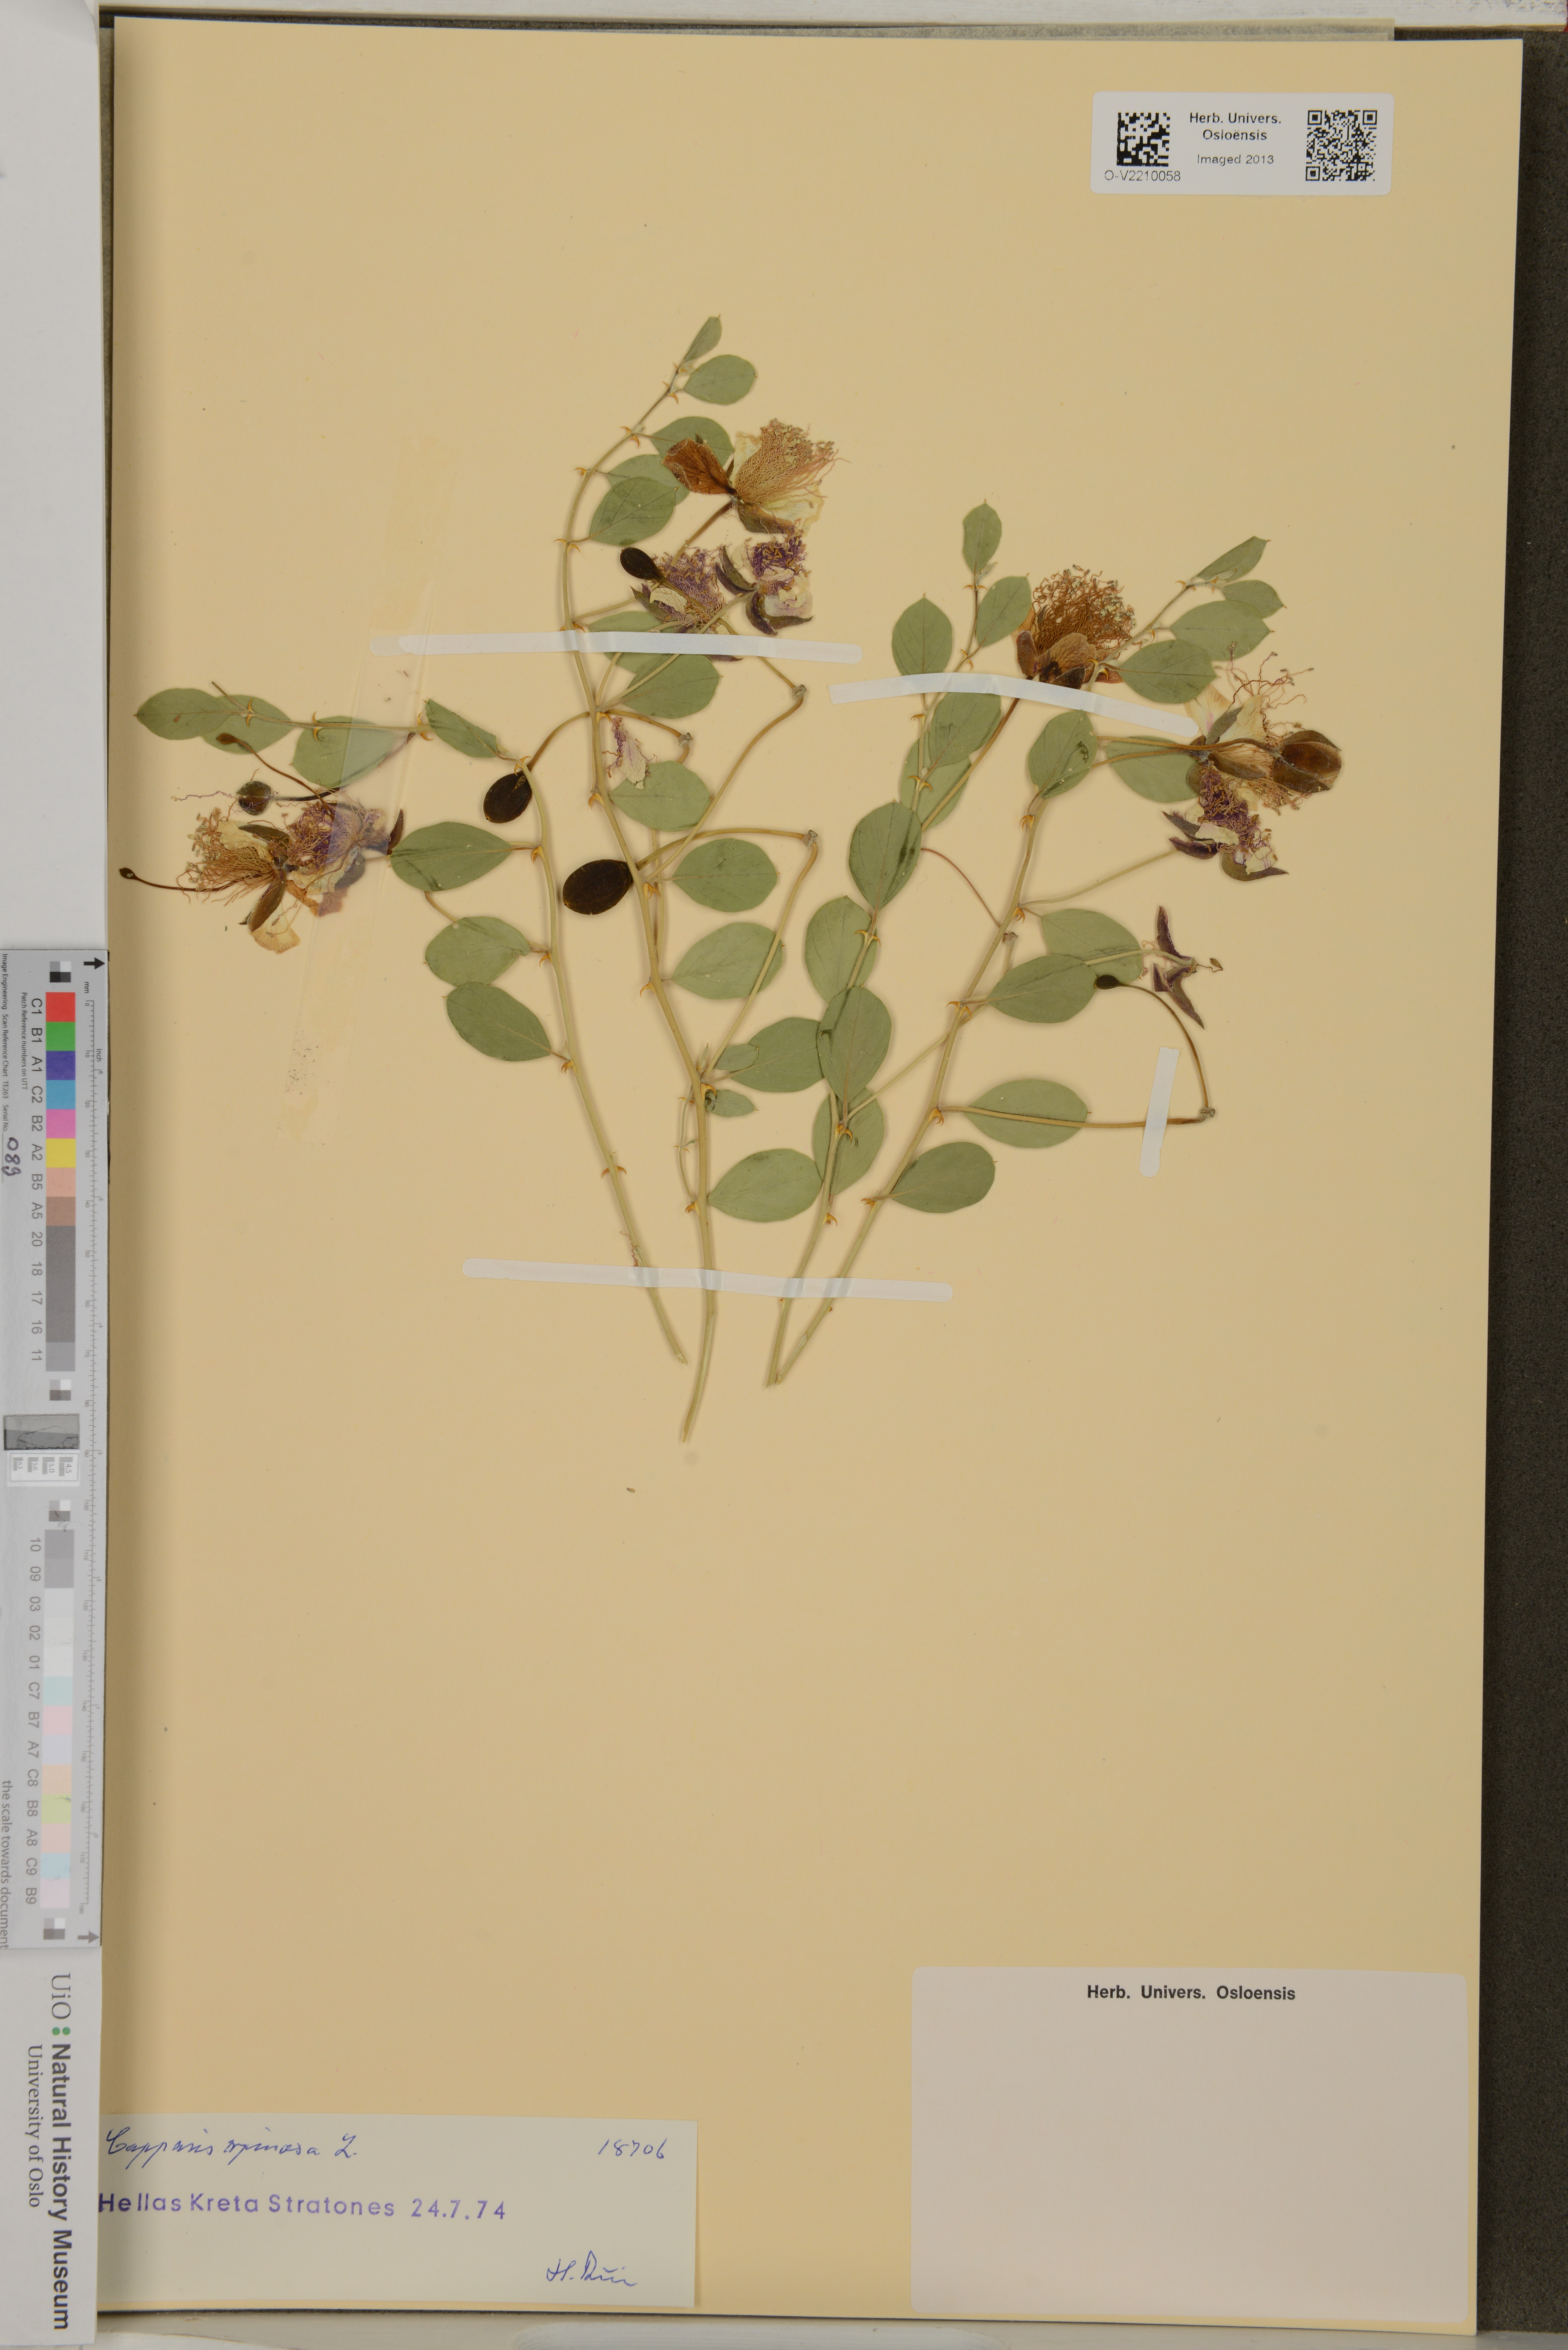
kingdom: Plantae
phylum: Tracheophyta
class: Magnoliopsida
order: Brassicales
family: Capparaceae
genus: Capparis
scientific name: Capparis spinosa
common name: Caper
